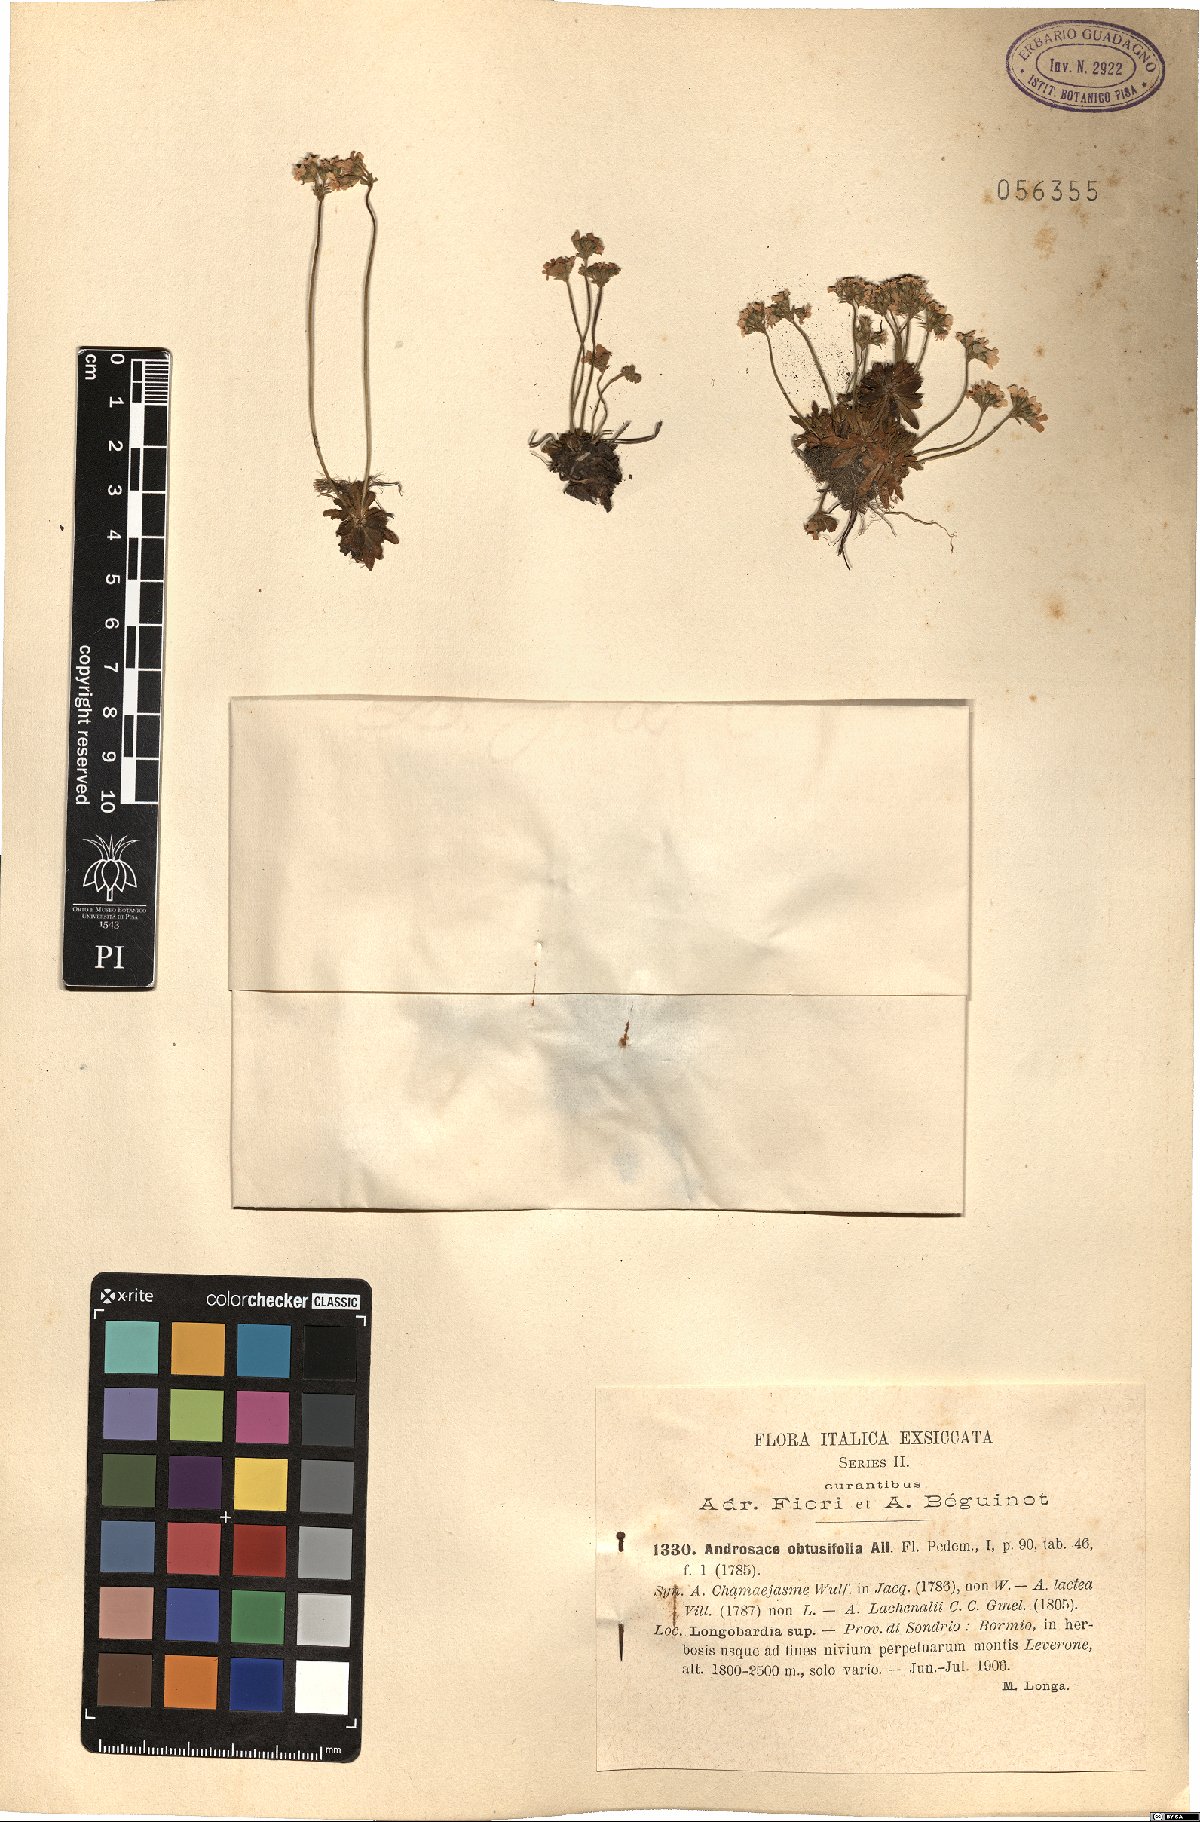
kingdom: Plantae
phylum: Tracheophyta
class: Magnoliopsida
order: Ericales
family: Primulaceae
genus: Androsace
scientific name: Androsace obtusifolia
